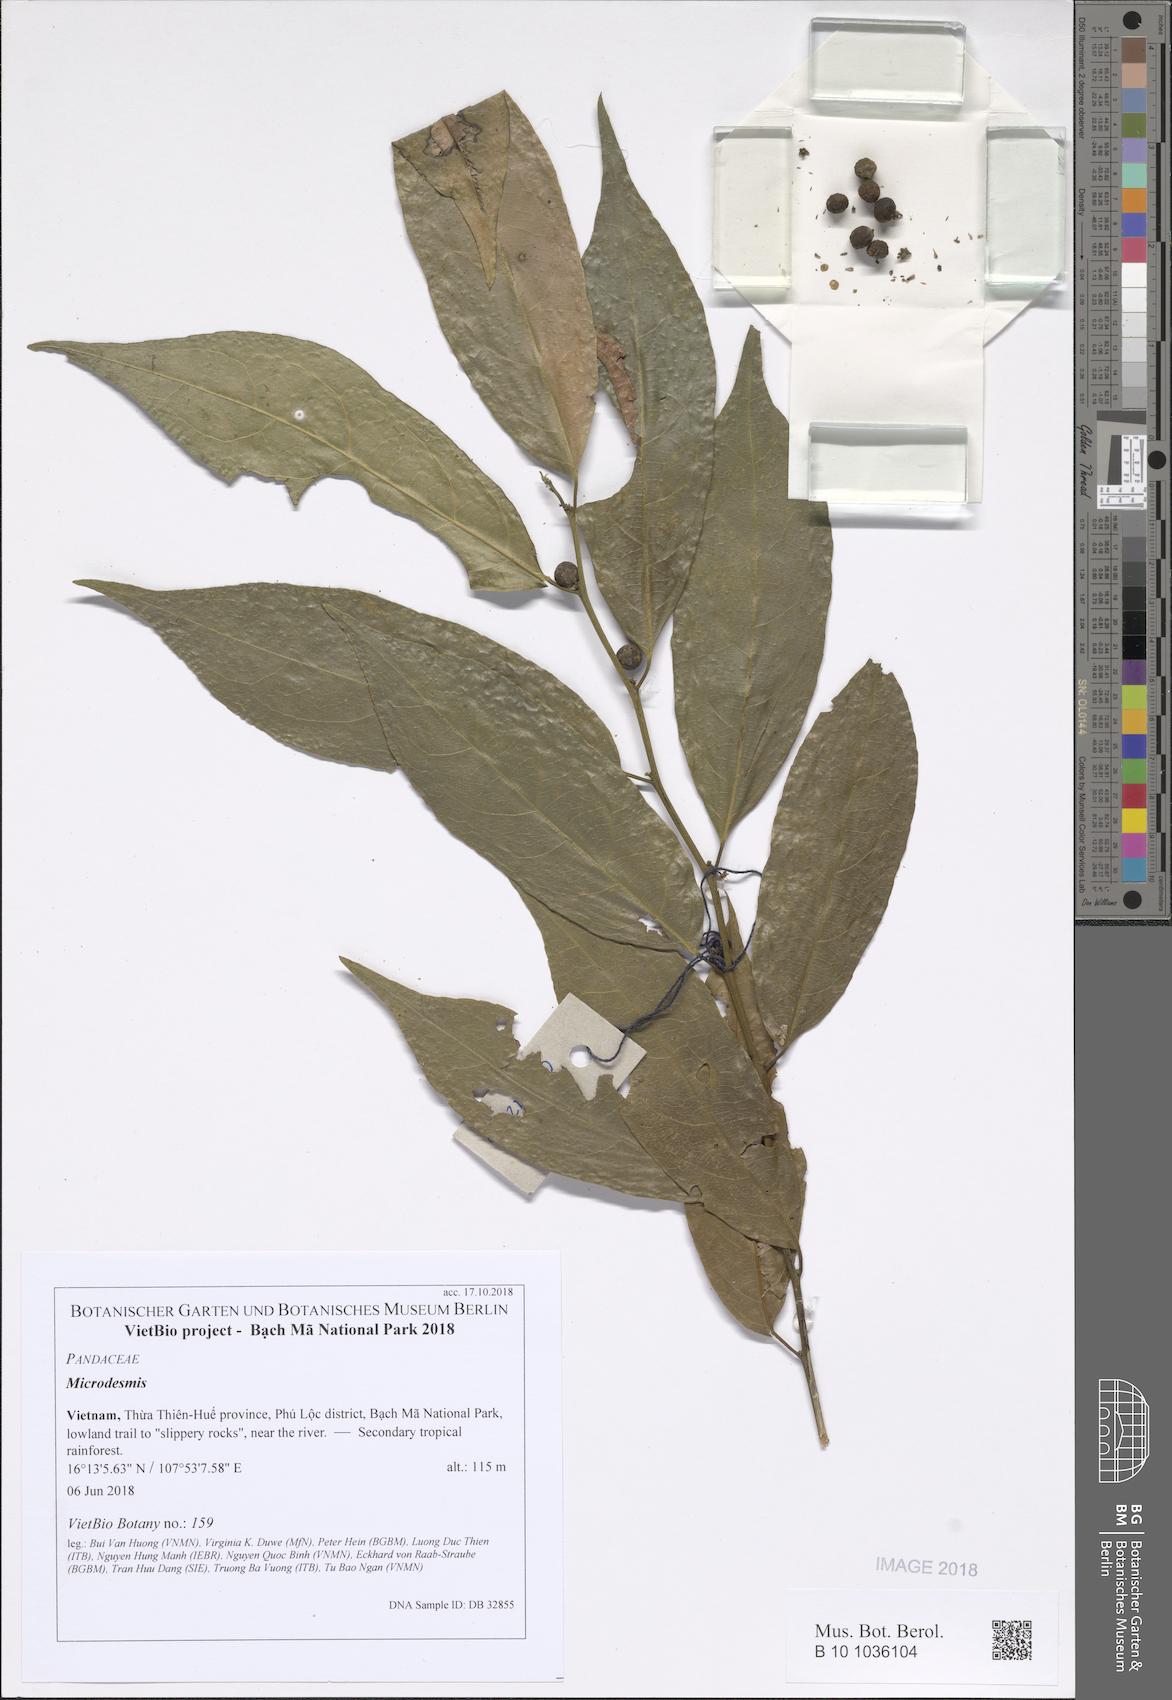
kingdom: Plantae
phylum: Tracheophyta
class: Magnoliopsida
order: Malpighiales
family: Pandaceae
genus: Microdesmis
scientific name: Microdesmis
